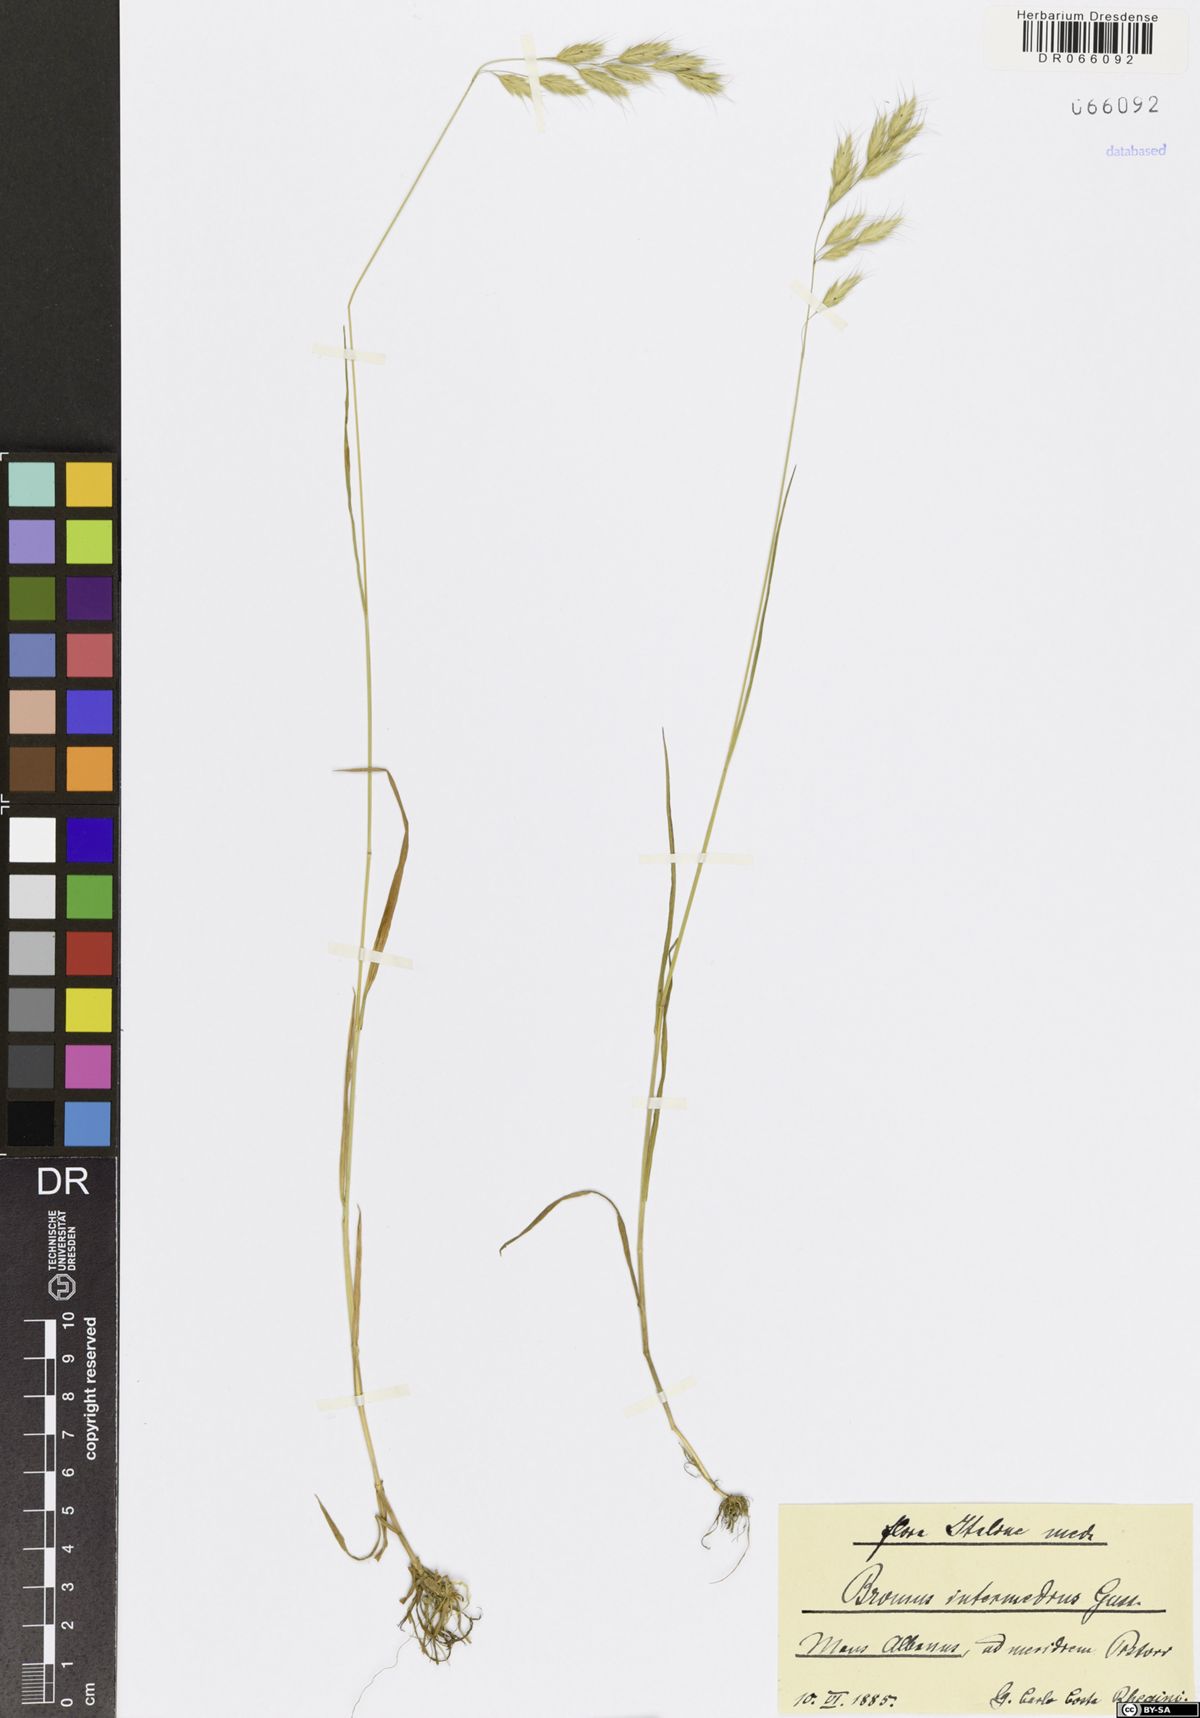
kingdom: Plantae
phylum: Tracheophyta
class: Liliopsida
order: Poales
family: Poaceae
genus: Bromus
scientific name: Bromus intermedius
